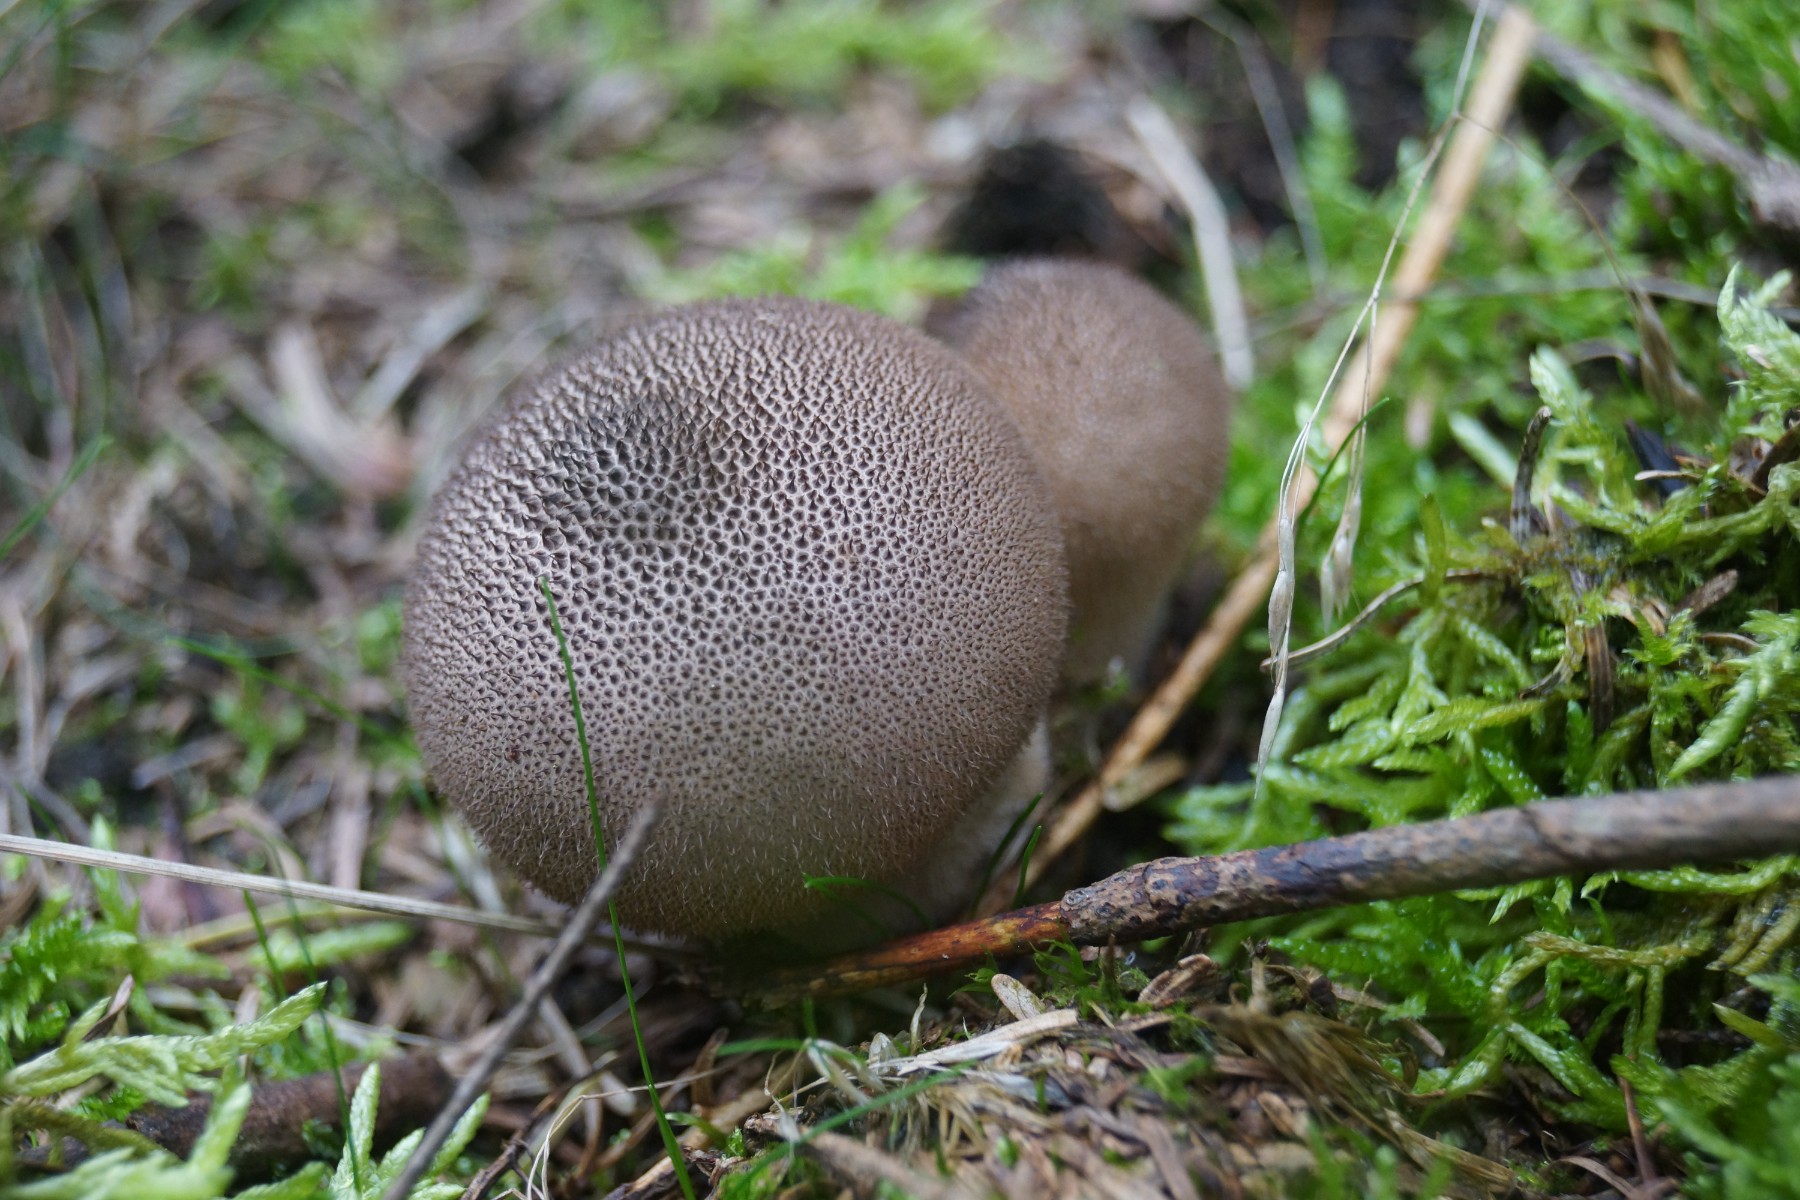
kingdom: Fungi
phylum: Basidiomycota
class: Agaricomycetes
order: Agaricales
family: Lycoperdaceae
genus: Lycoperdon
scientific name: Lycoperdon nigrescens
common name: sortagtig støvbold
